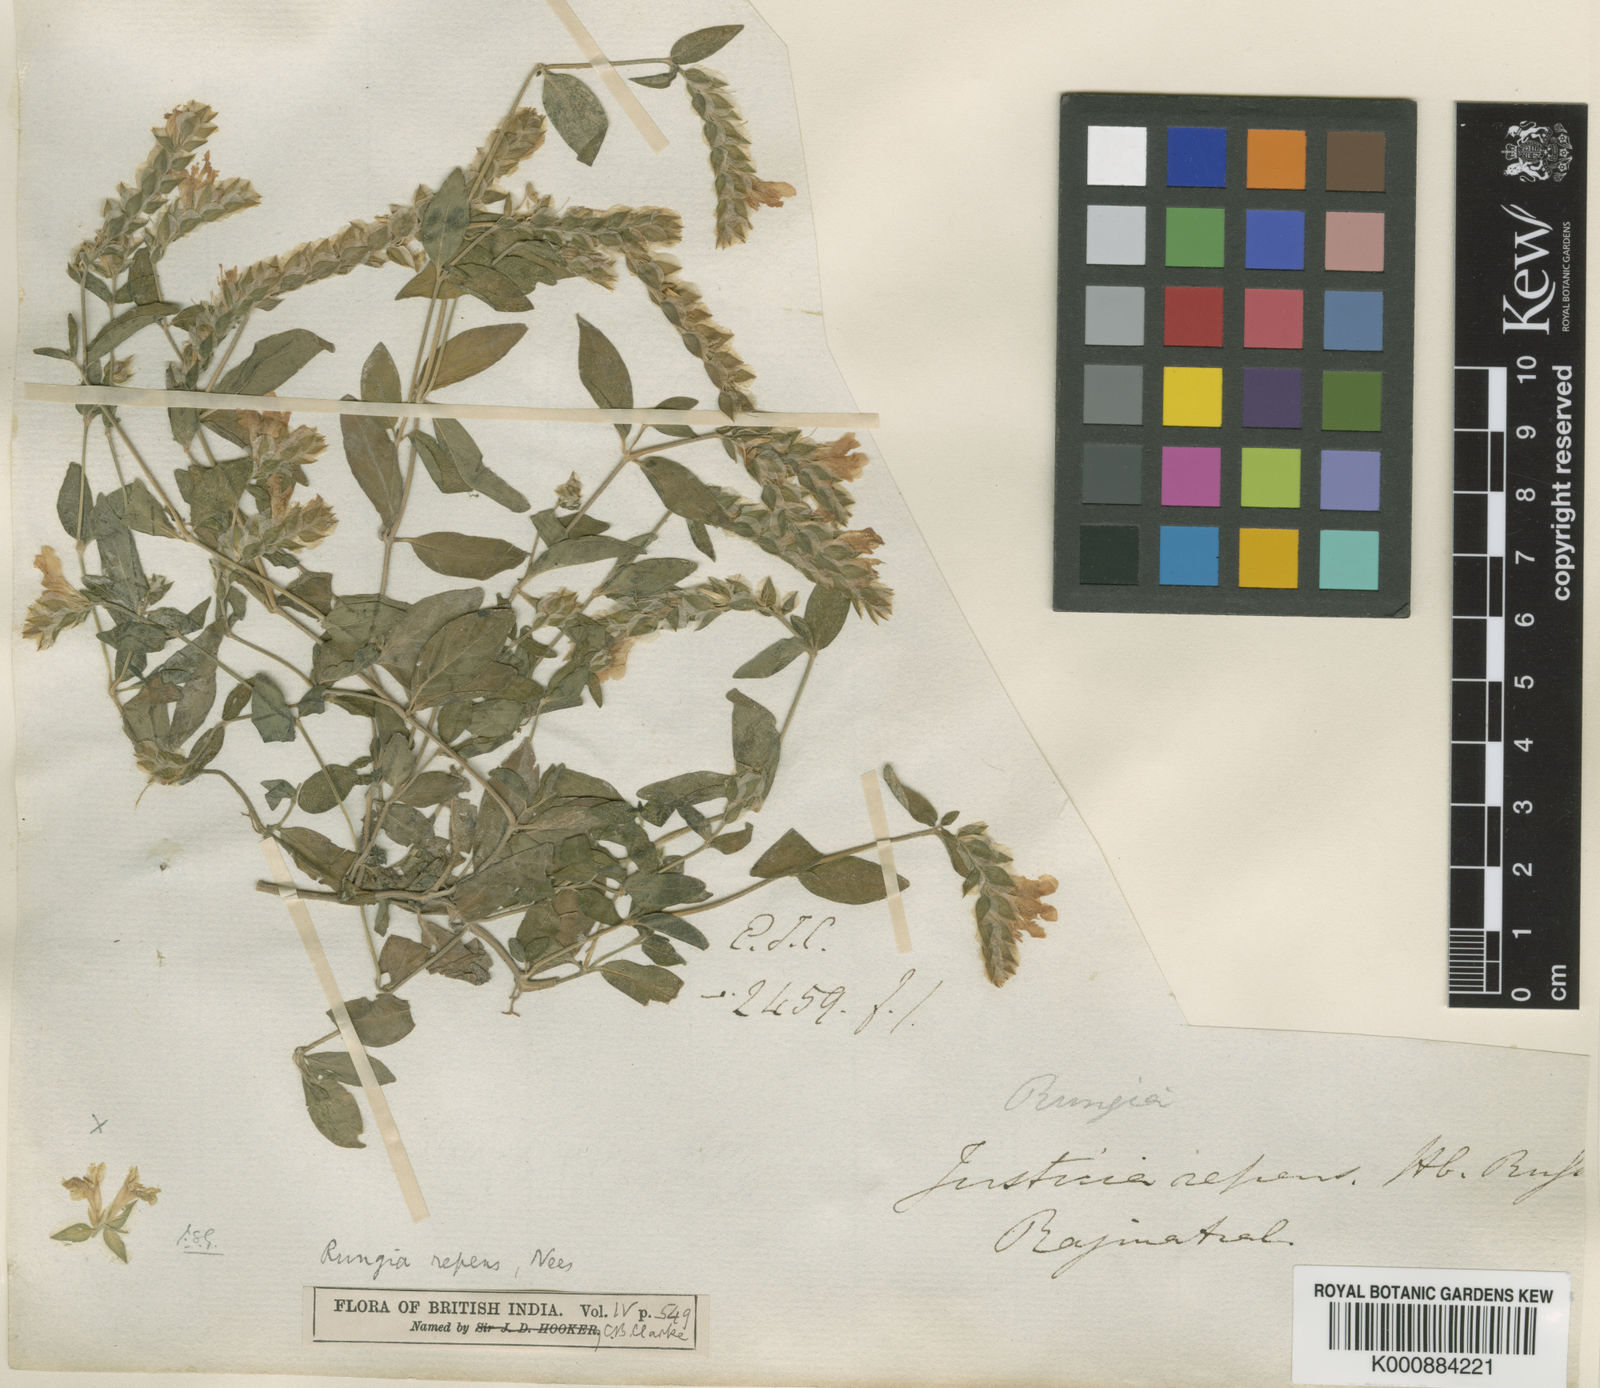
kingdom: Plantae
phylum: Tracheophyta
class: Magnoliopsida
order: Lamiales
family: Acanthaceae
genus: Rungia
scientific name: Rungia repens
